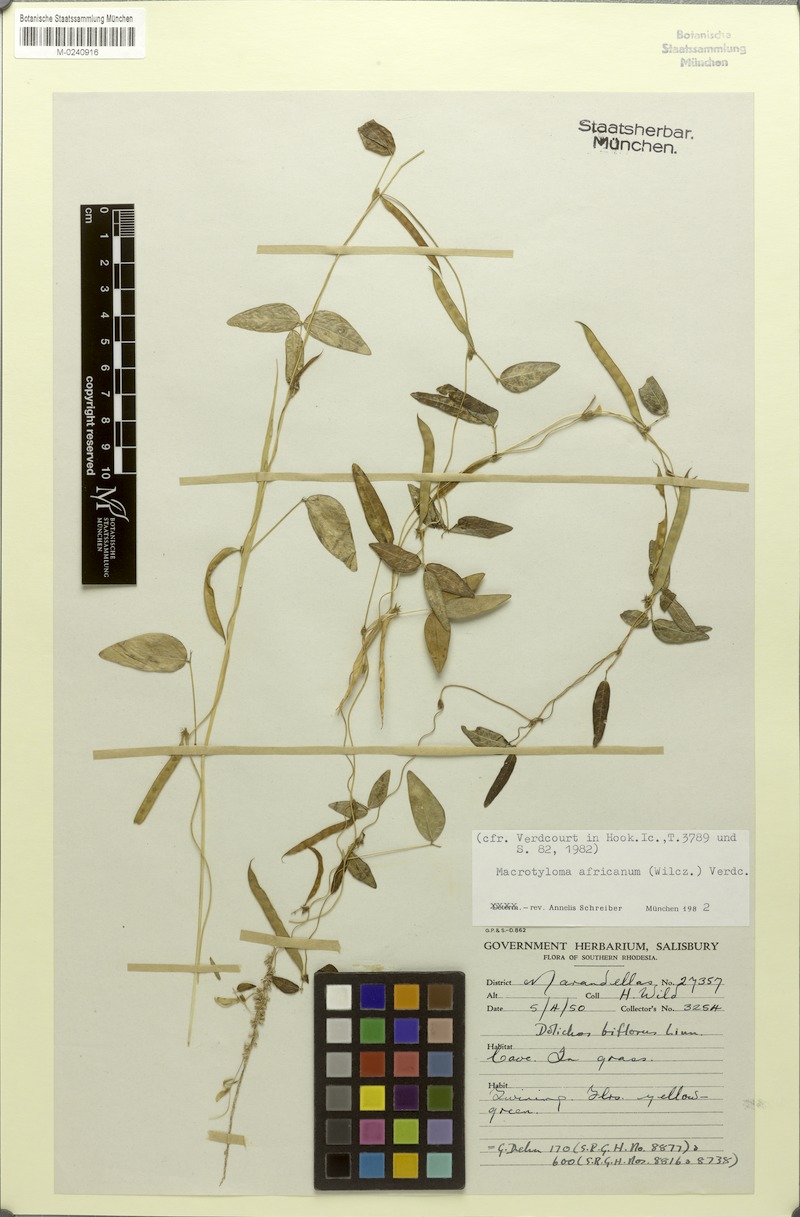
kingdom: Plantae
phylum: Tracheophyta
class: Magnoliopsida
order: Fabales
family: Fabaceae
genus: Macrotyloma
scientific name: Macrotyloma africanum
